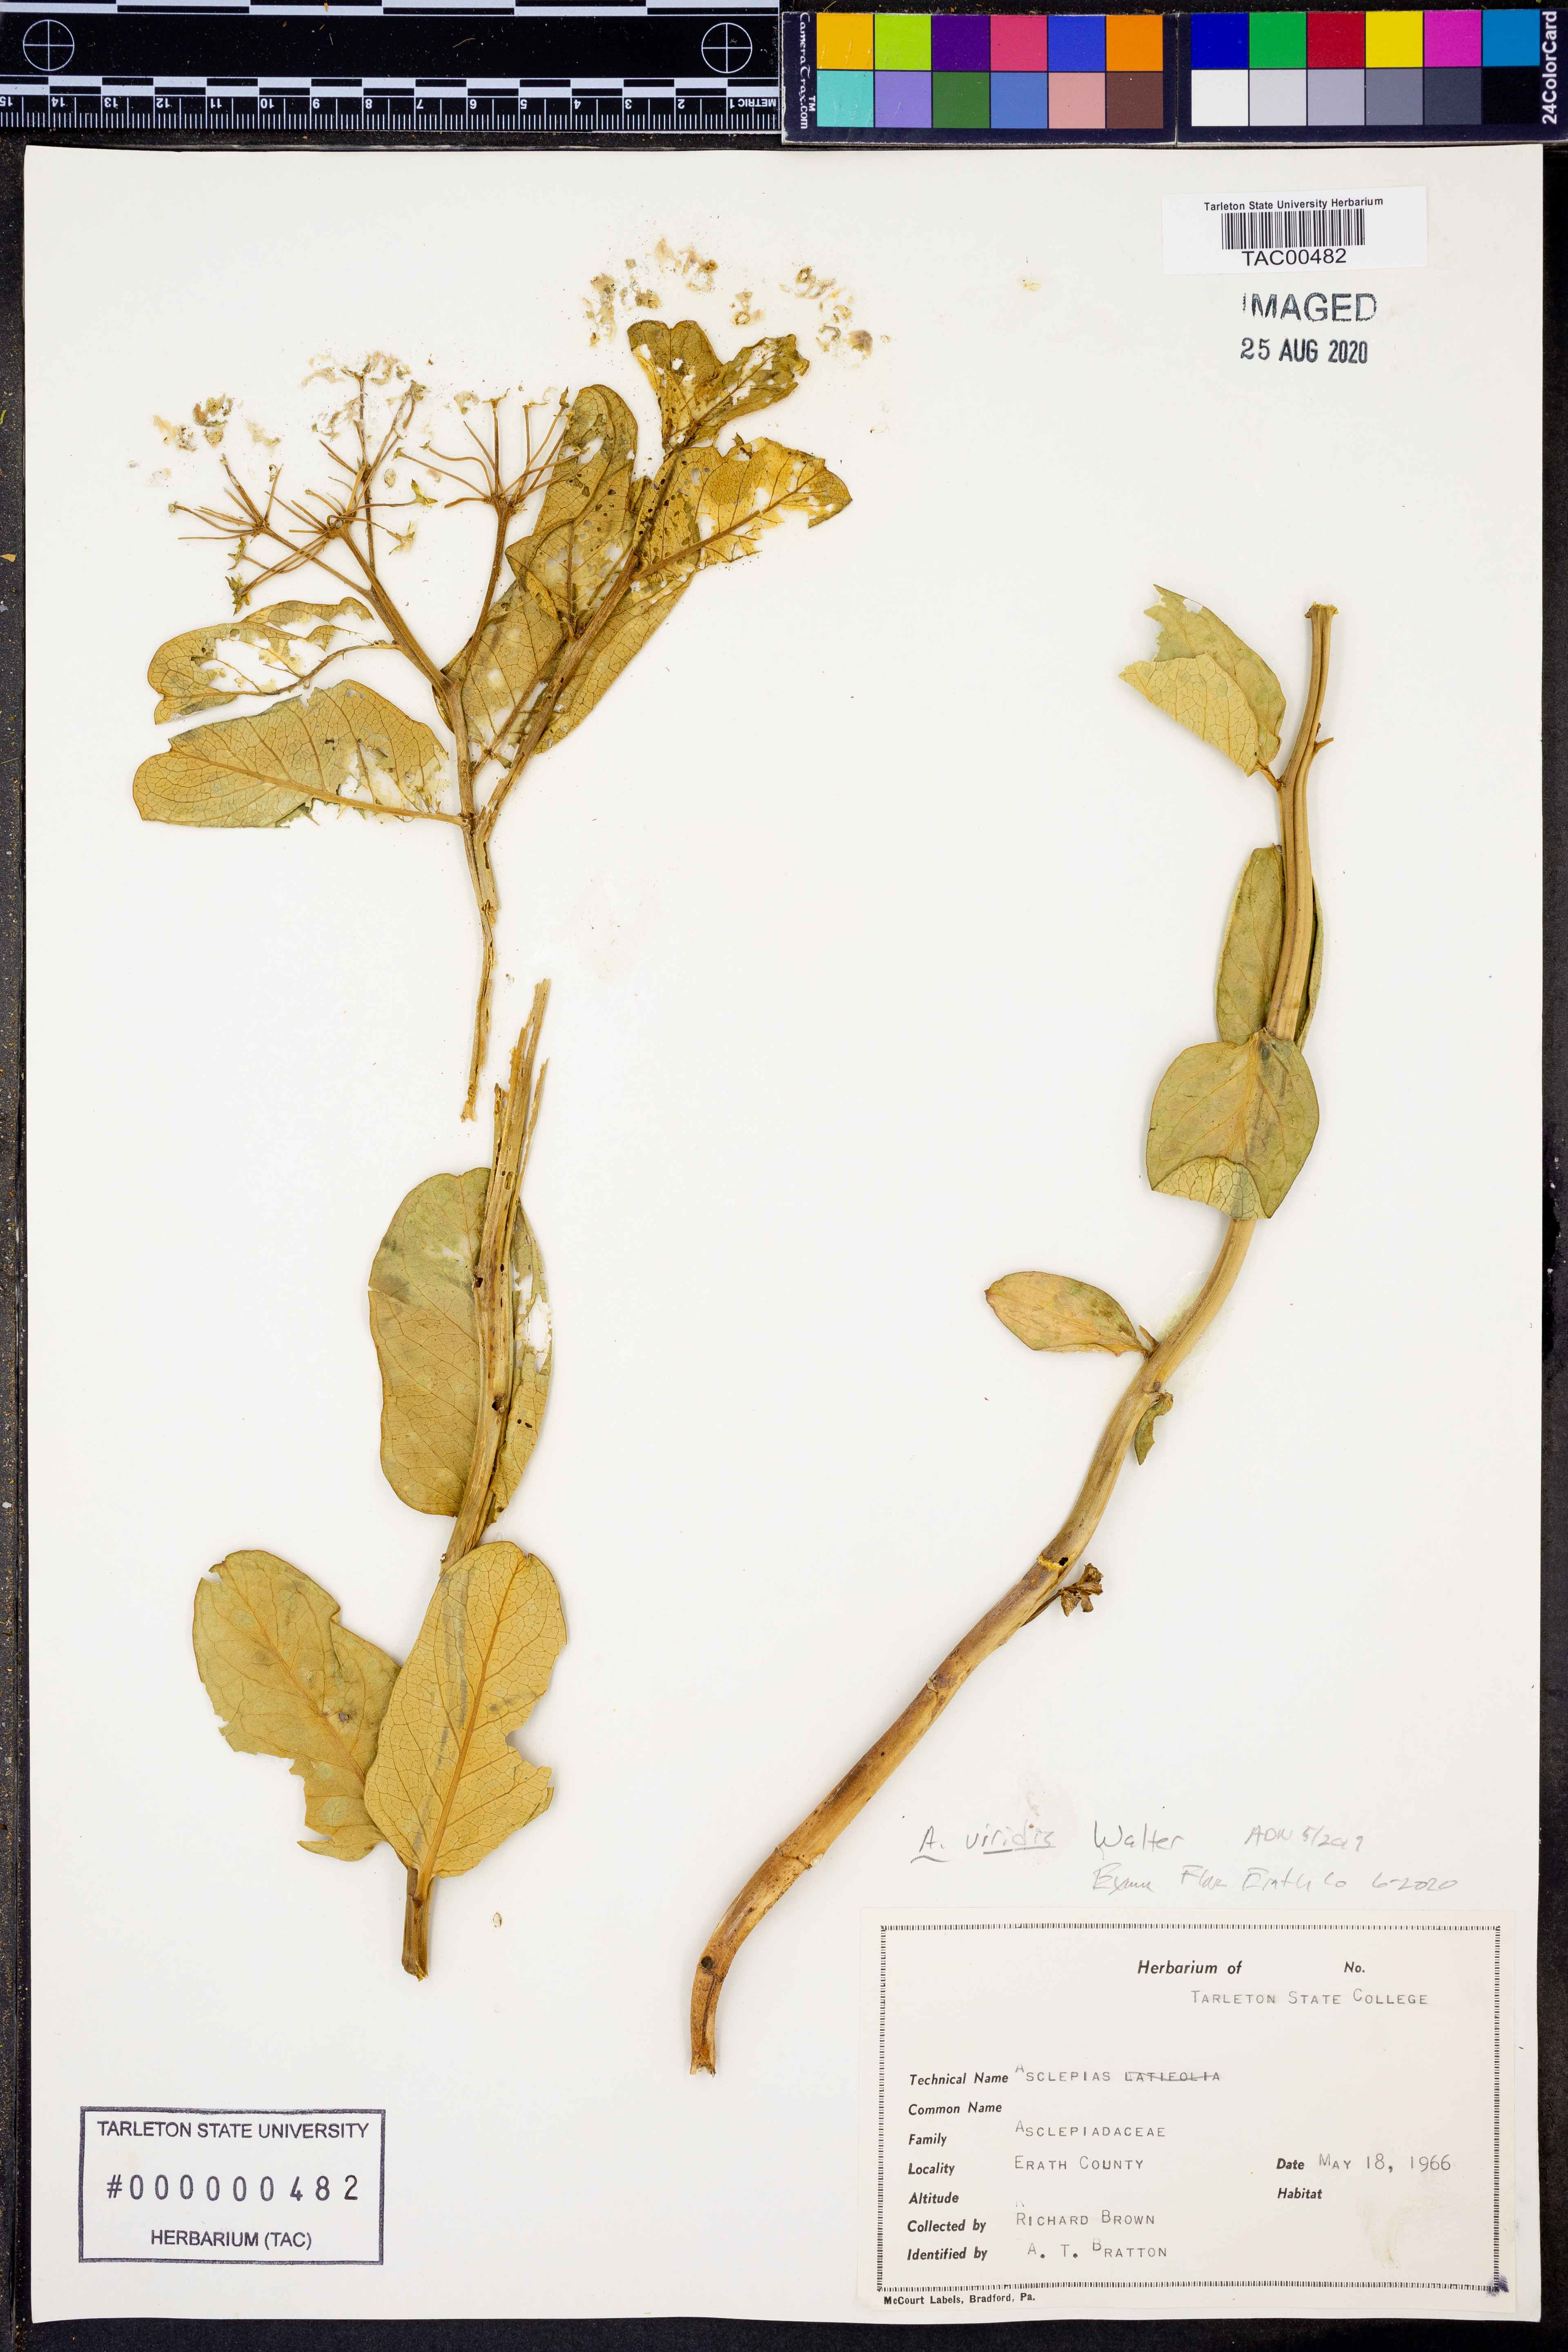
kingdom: Plantae
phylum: Tracheophyta
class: Magnoliopsida
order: Gentianales
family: Apocynaceae
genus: Asclepias
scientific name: Asclepias viridis
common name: Antelope-horns
